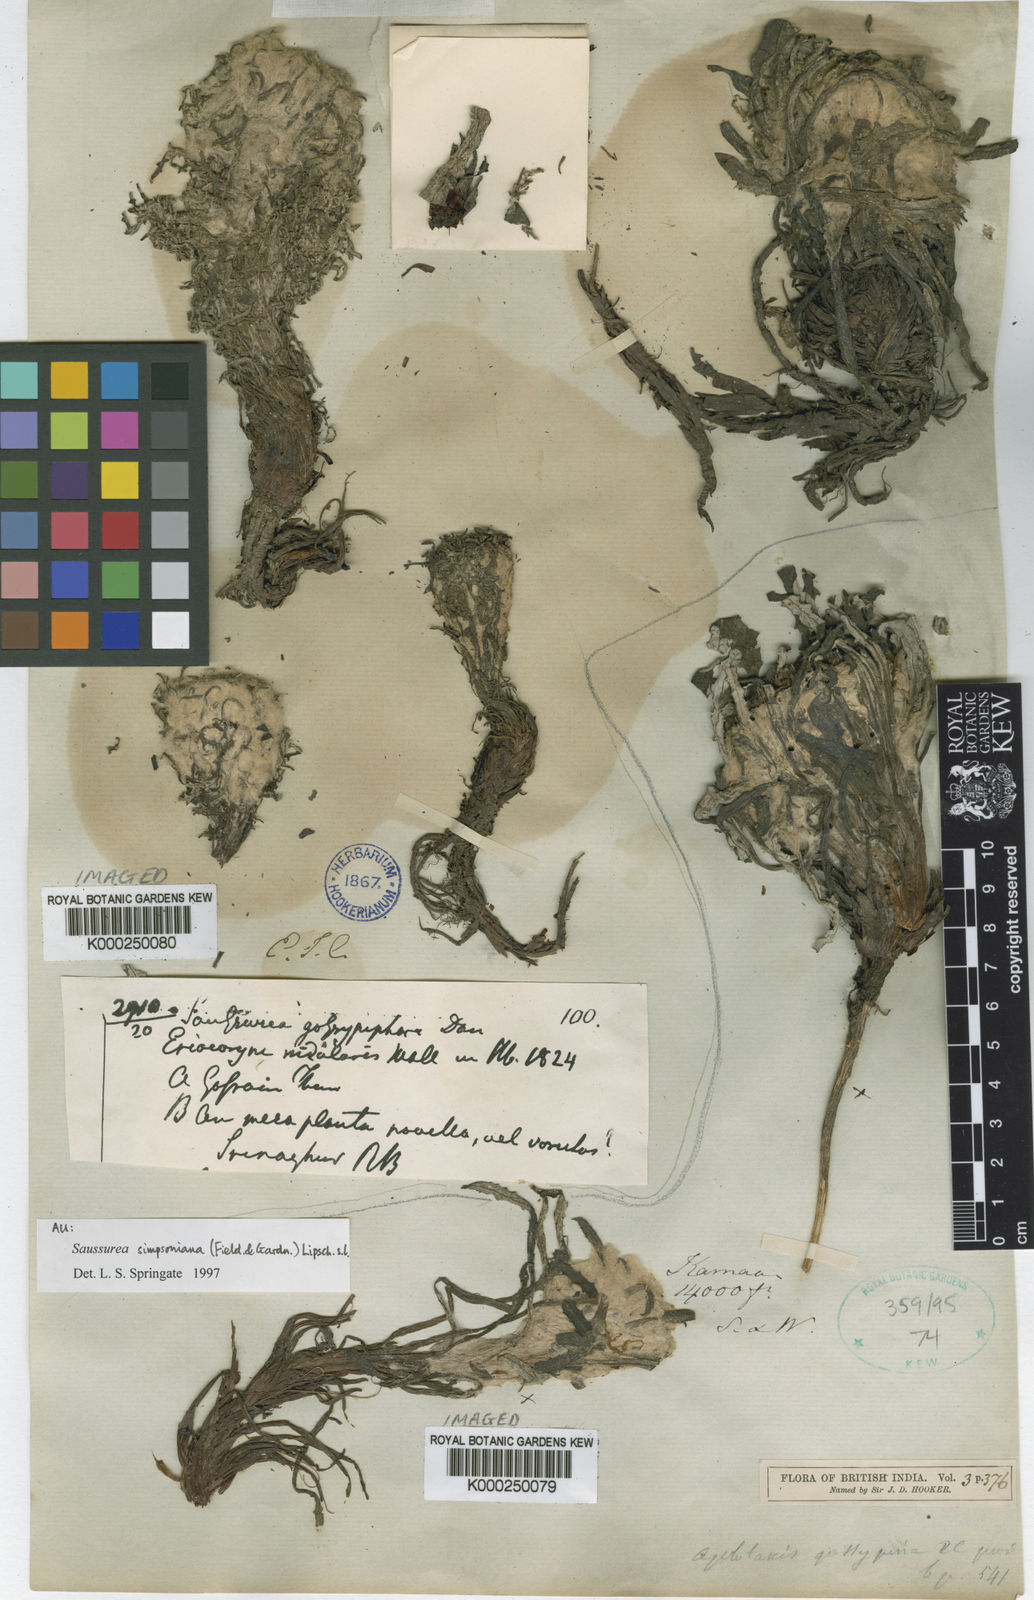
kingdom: Plantae
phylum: Tracheophyta
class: Magnoliopsida
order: Asterales
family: Asteraceae
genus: Saussurea
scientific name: Saussurea gossipiphora
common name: Saussurea
